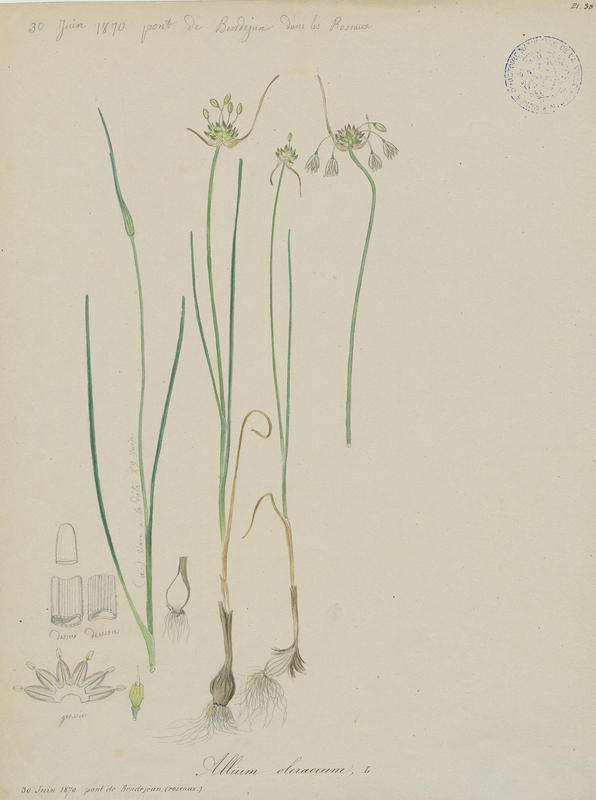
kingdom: Plantae
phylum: Tracheophyta
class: Liliopsida
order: Asparagales
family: Amaryllidaceae
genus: Allium
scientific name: Allium oleraceum
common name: Field garlic
